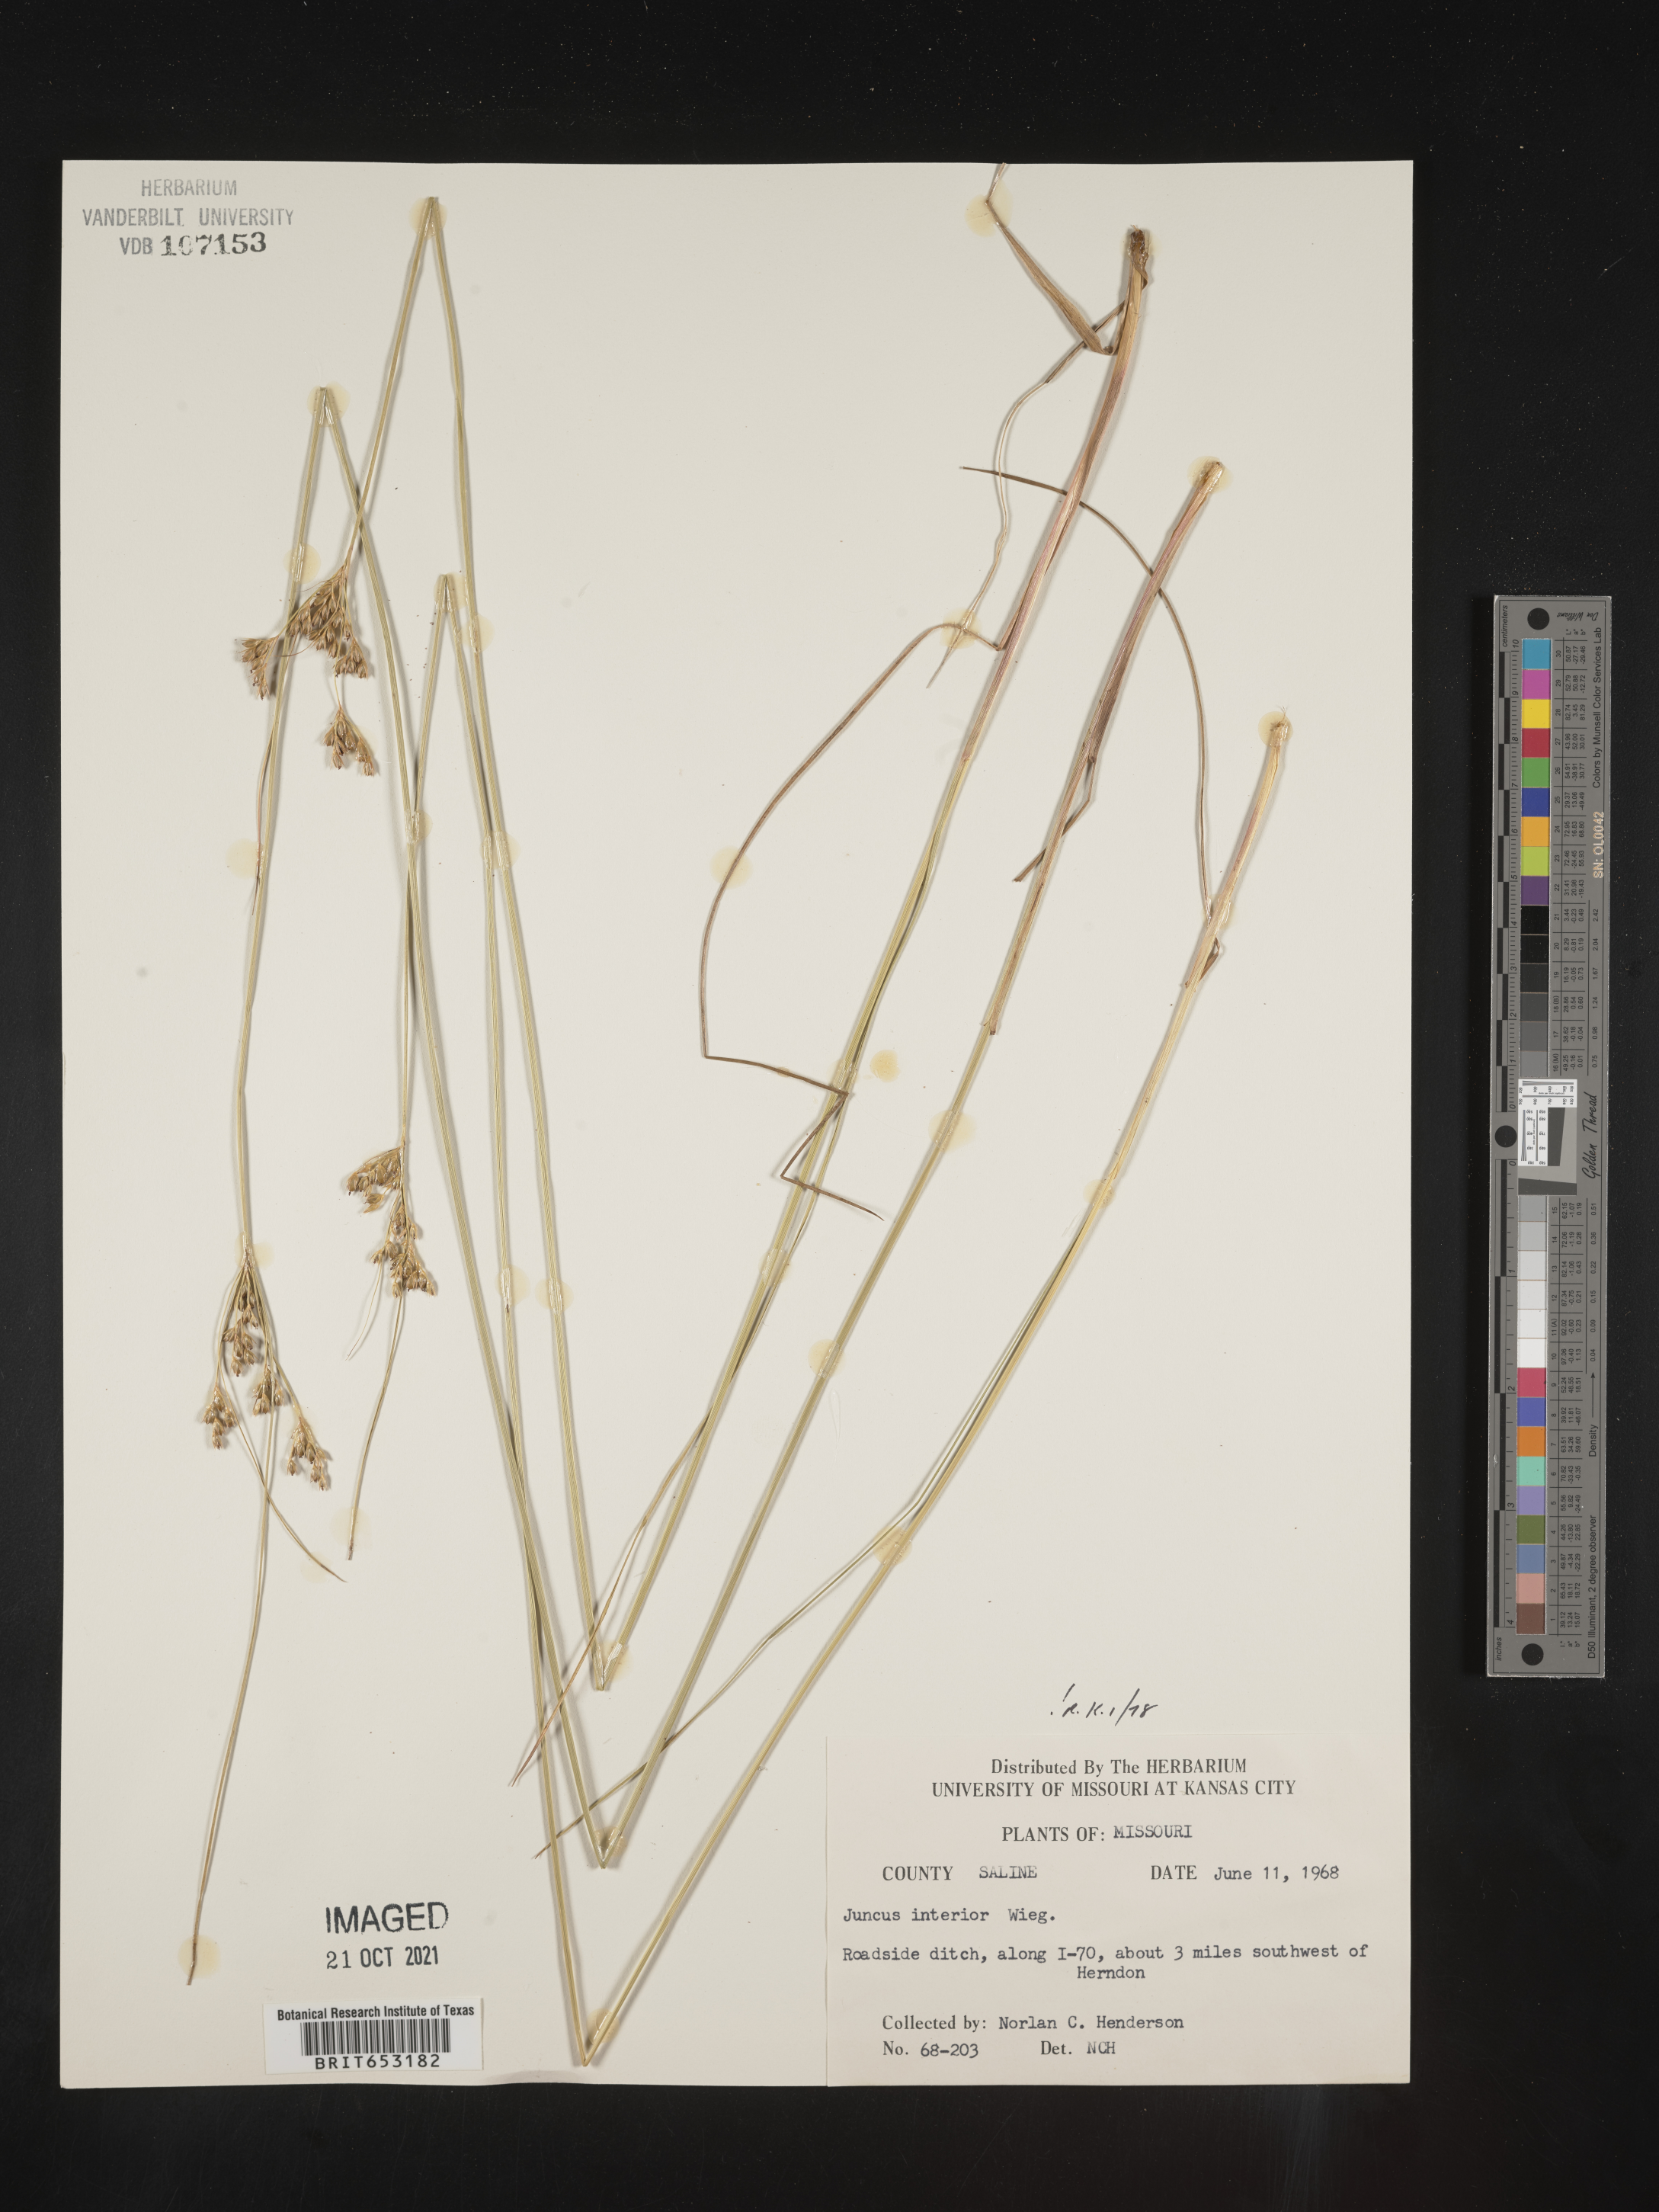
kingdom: Plantae
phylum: Tracheophyta
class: Liliopsida
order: Poales
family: Juncaceae
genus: Juncus
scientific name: Juncus interior
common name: Interior rush
